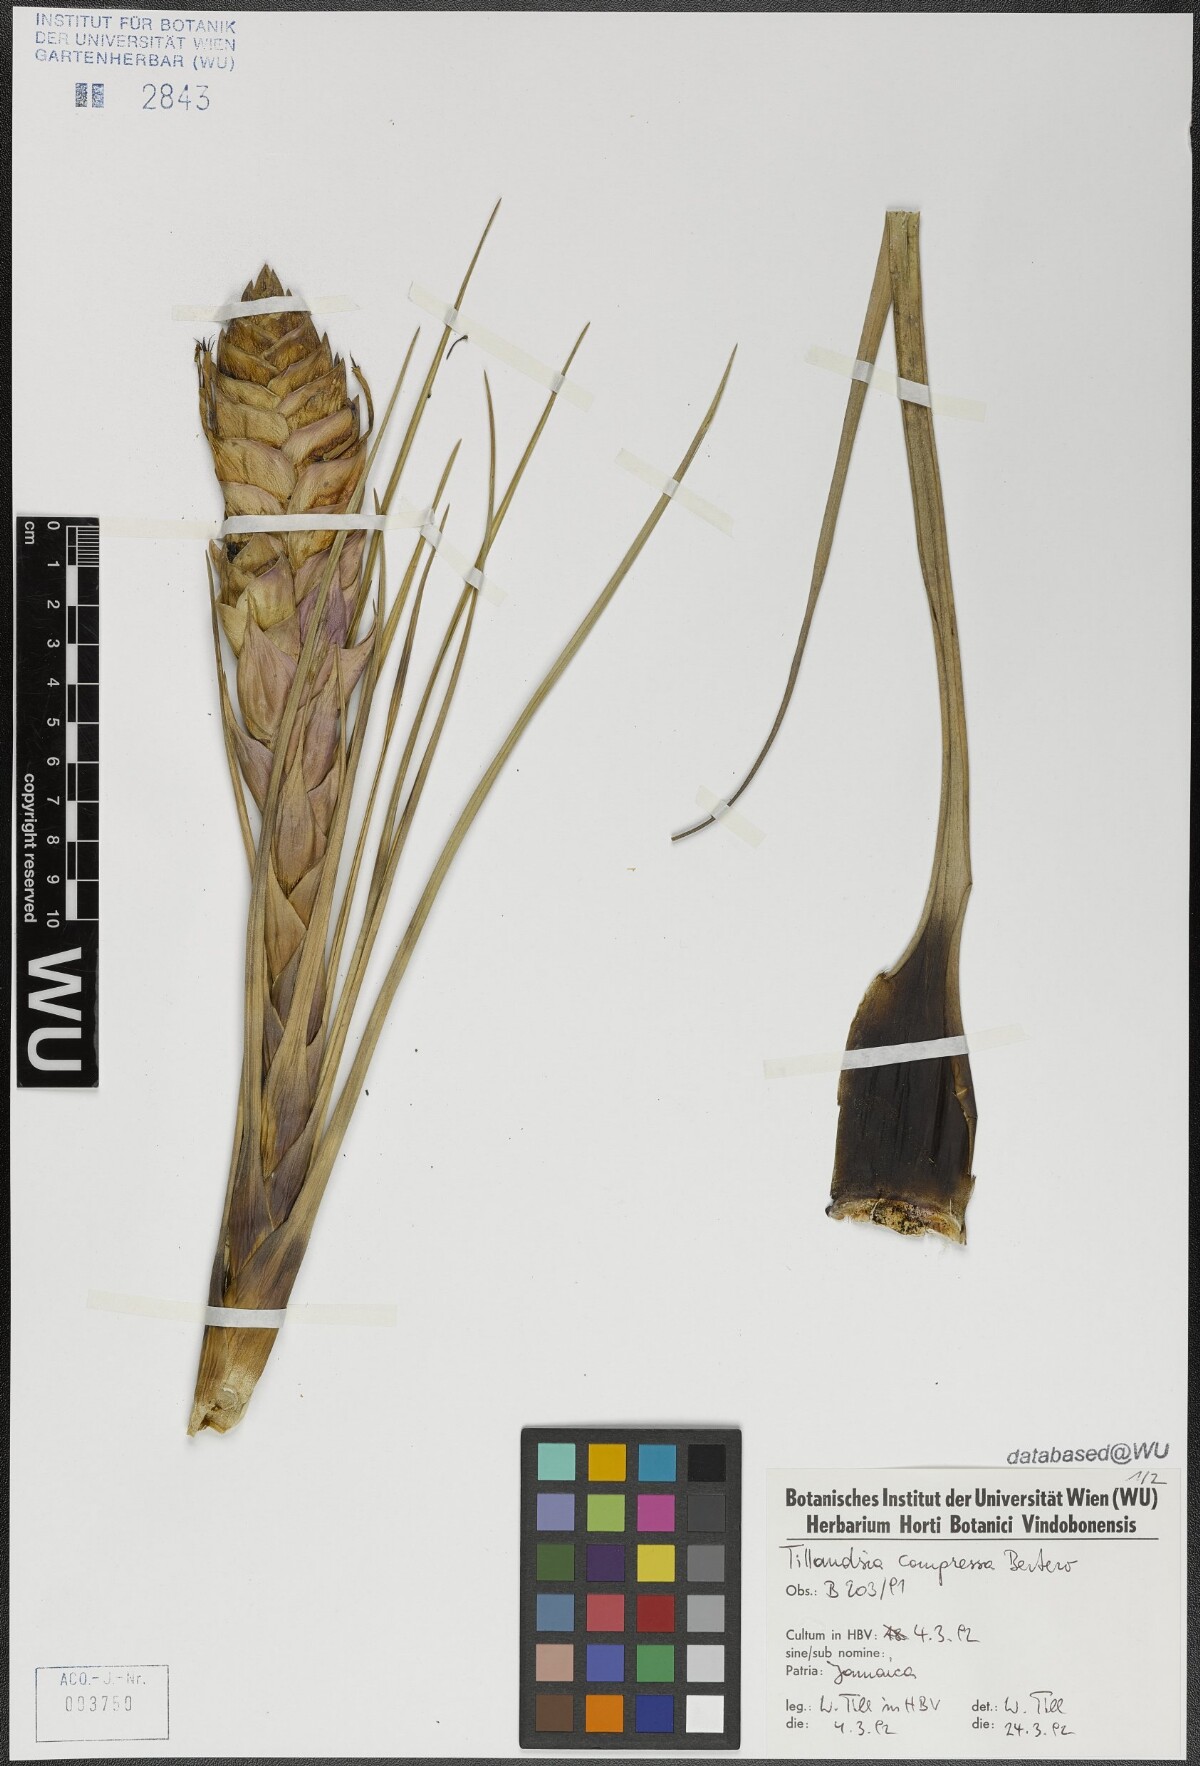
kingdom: Plantae
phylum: Tracheophyta
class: Liliopsida
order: Poales
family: Bromeliaceae
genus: Tillandsia
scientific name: Tillandsia compressa
